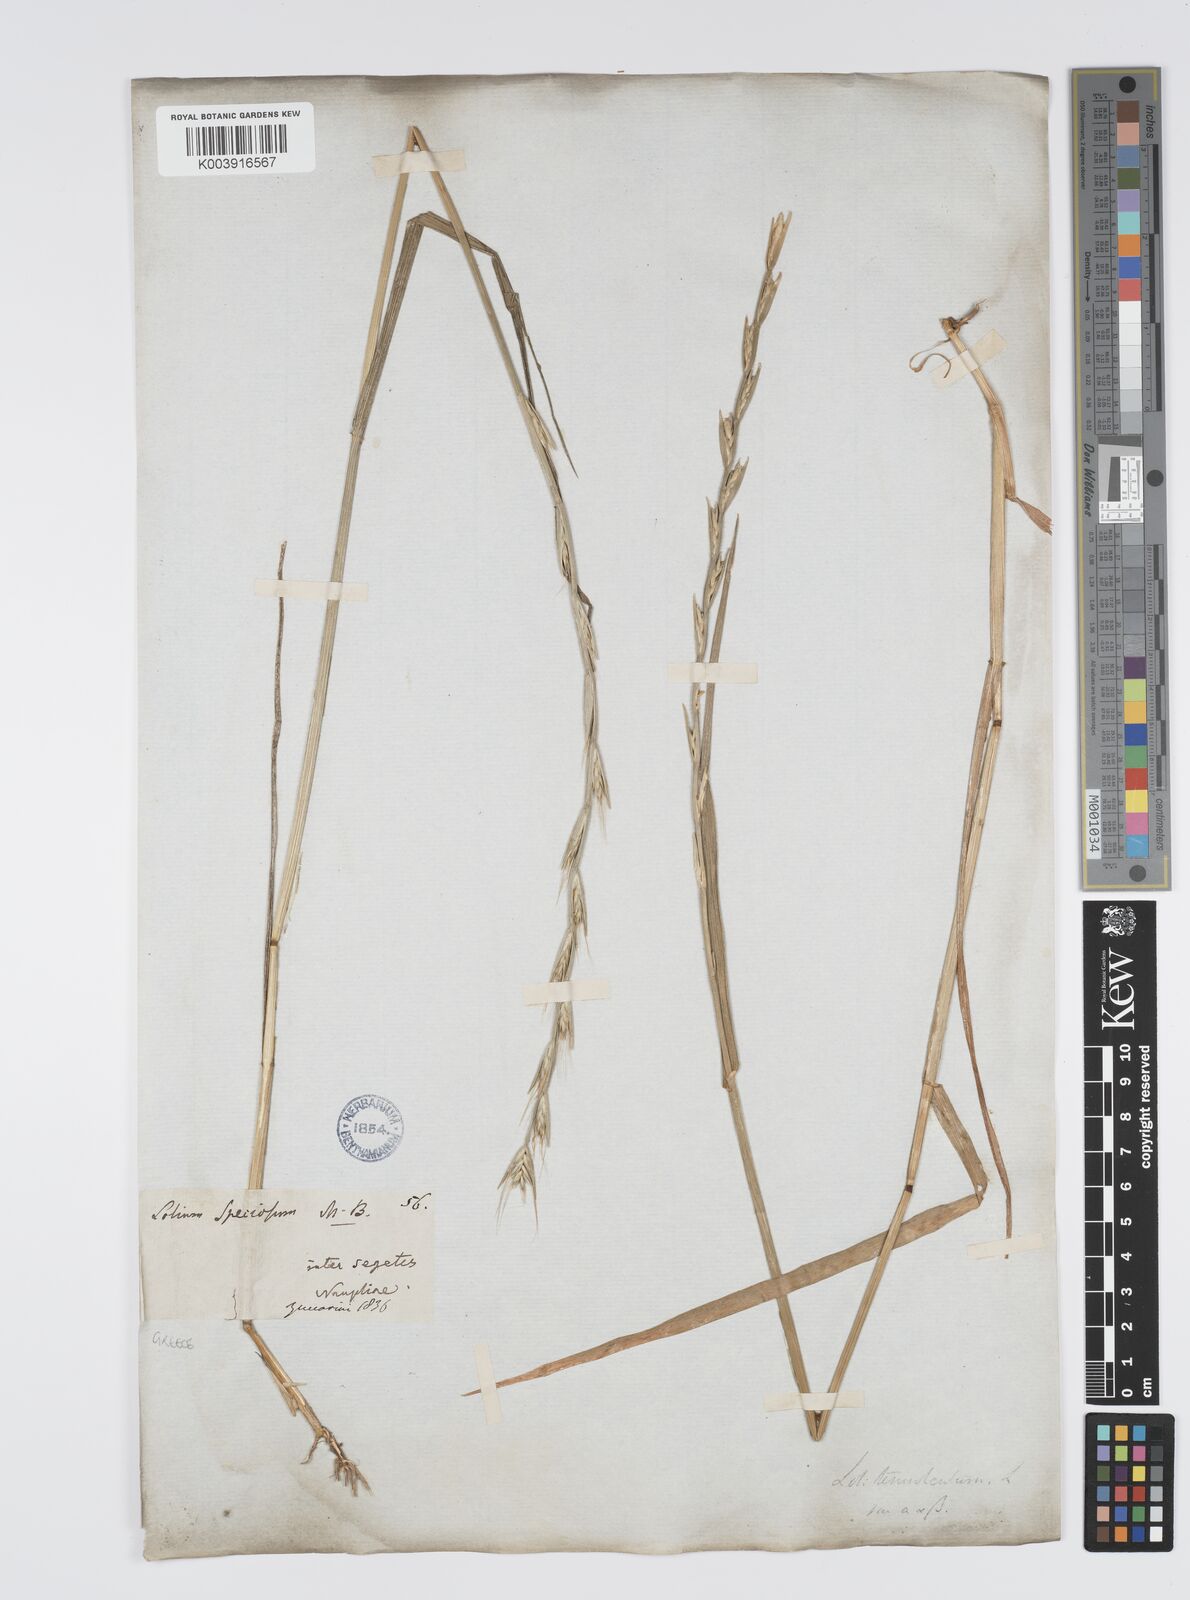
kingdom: Plantae
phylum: Tracheophyta
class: Liliopsida
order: Poales
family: Poaceae
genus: Lolium
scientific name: Lolium temulentum
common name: Darnel
